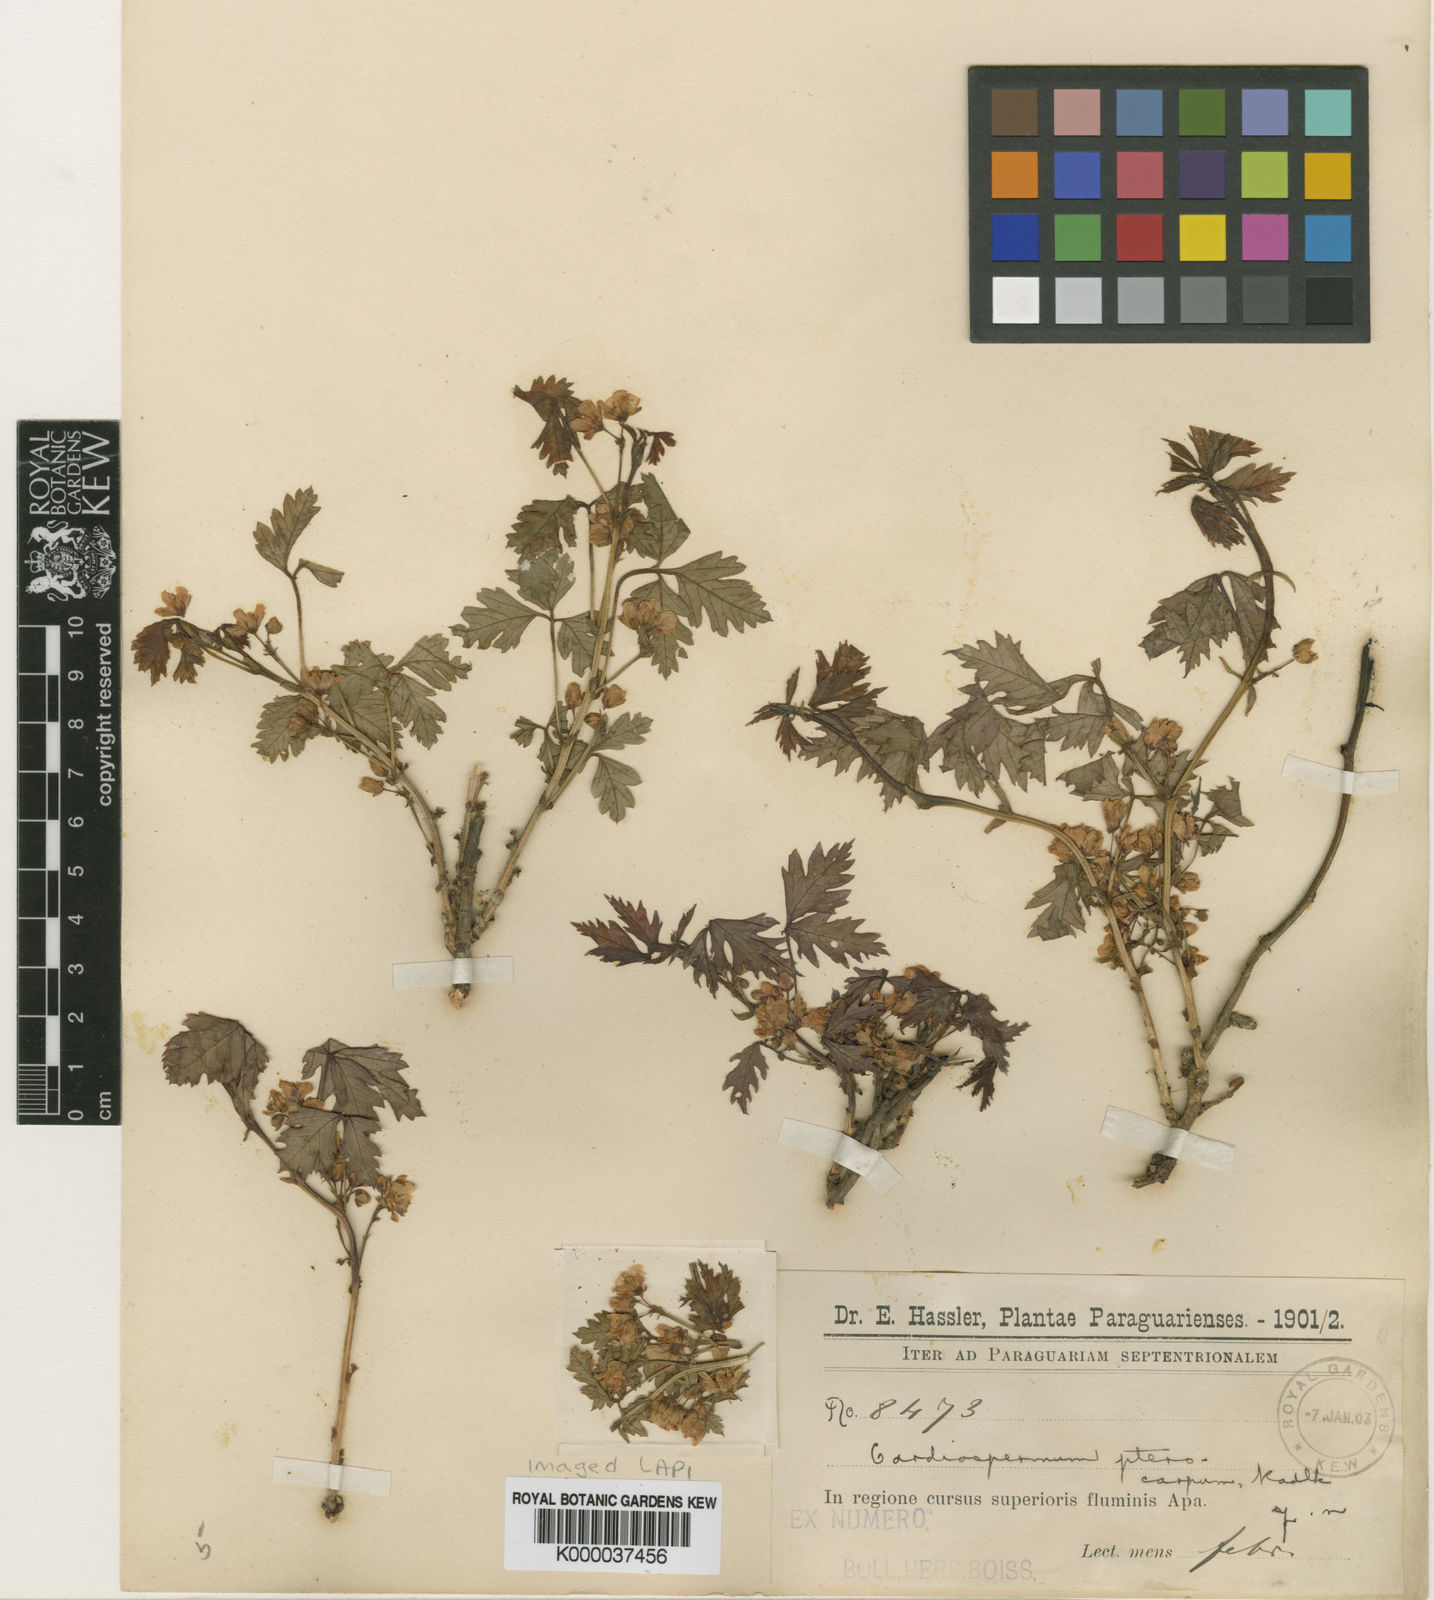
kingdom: Plantae
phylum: Tracheophyta
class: Magnoliopsida
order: Sapindales
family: Sapindaceae
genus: Urvillea
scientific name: Urvillea pterocarpa
